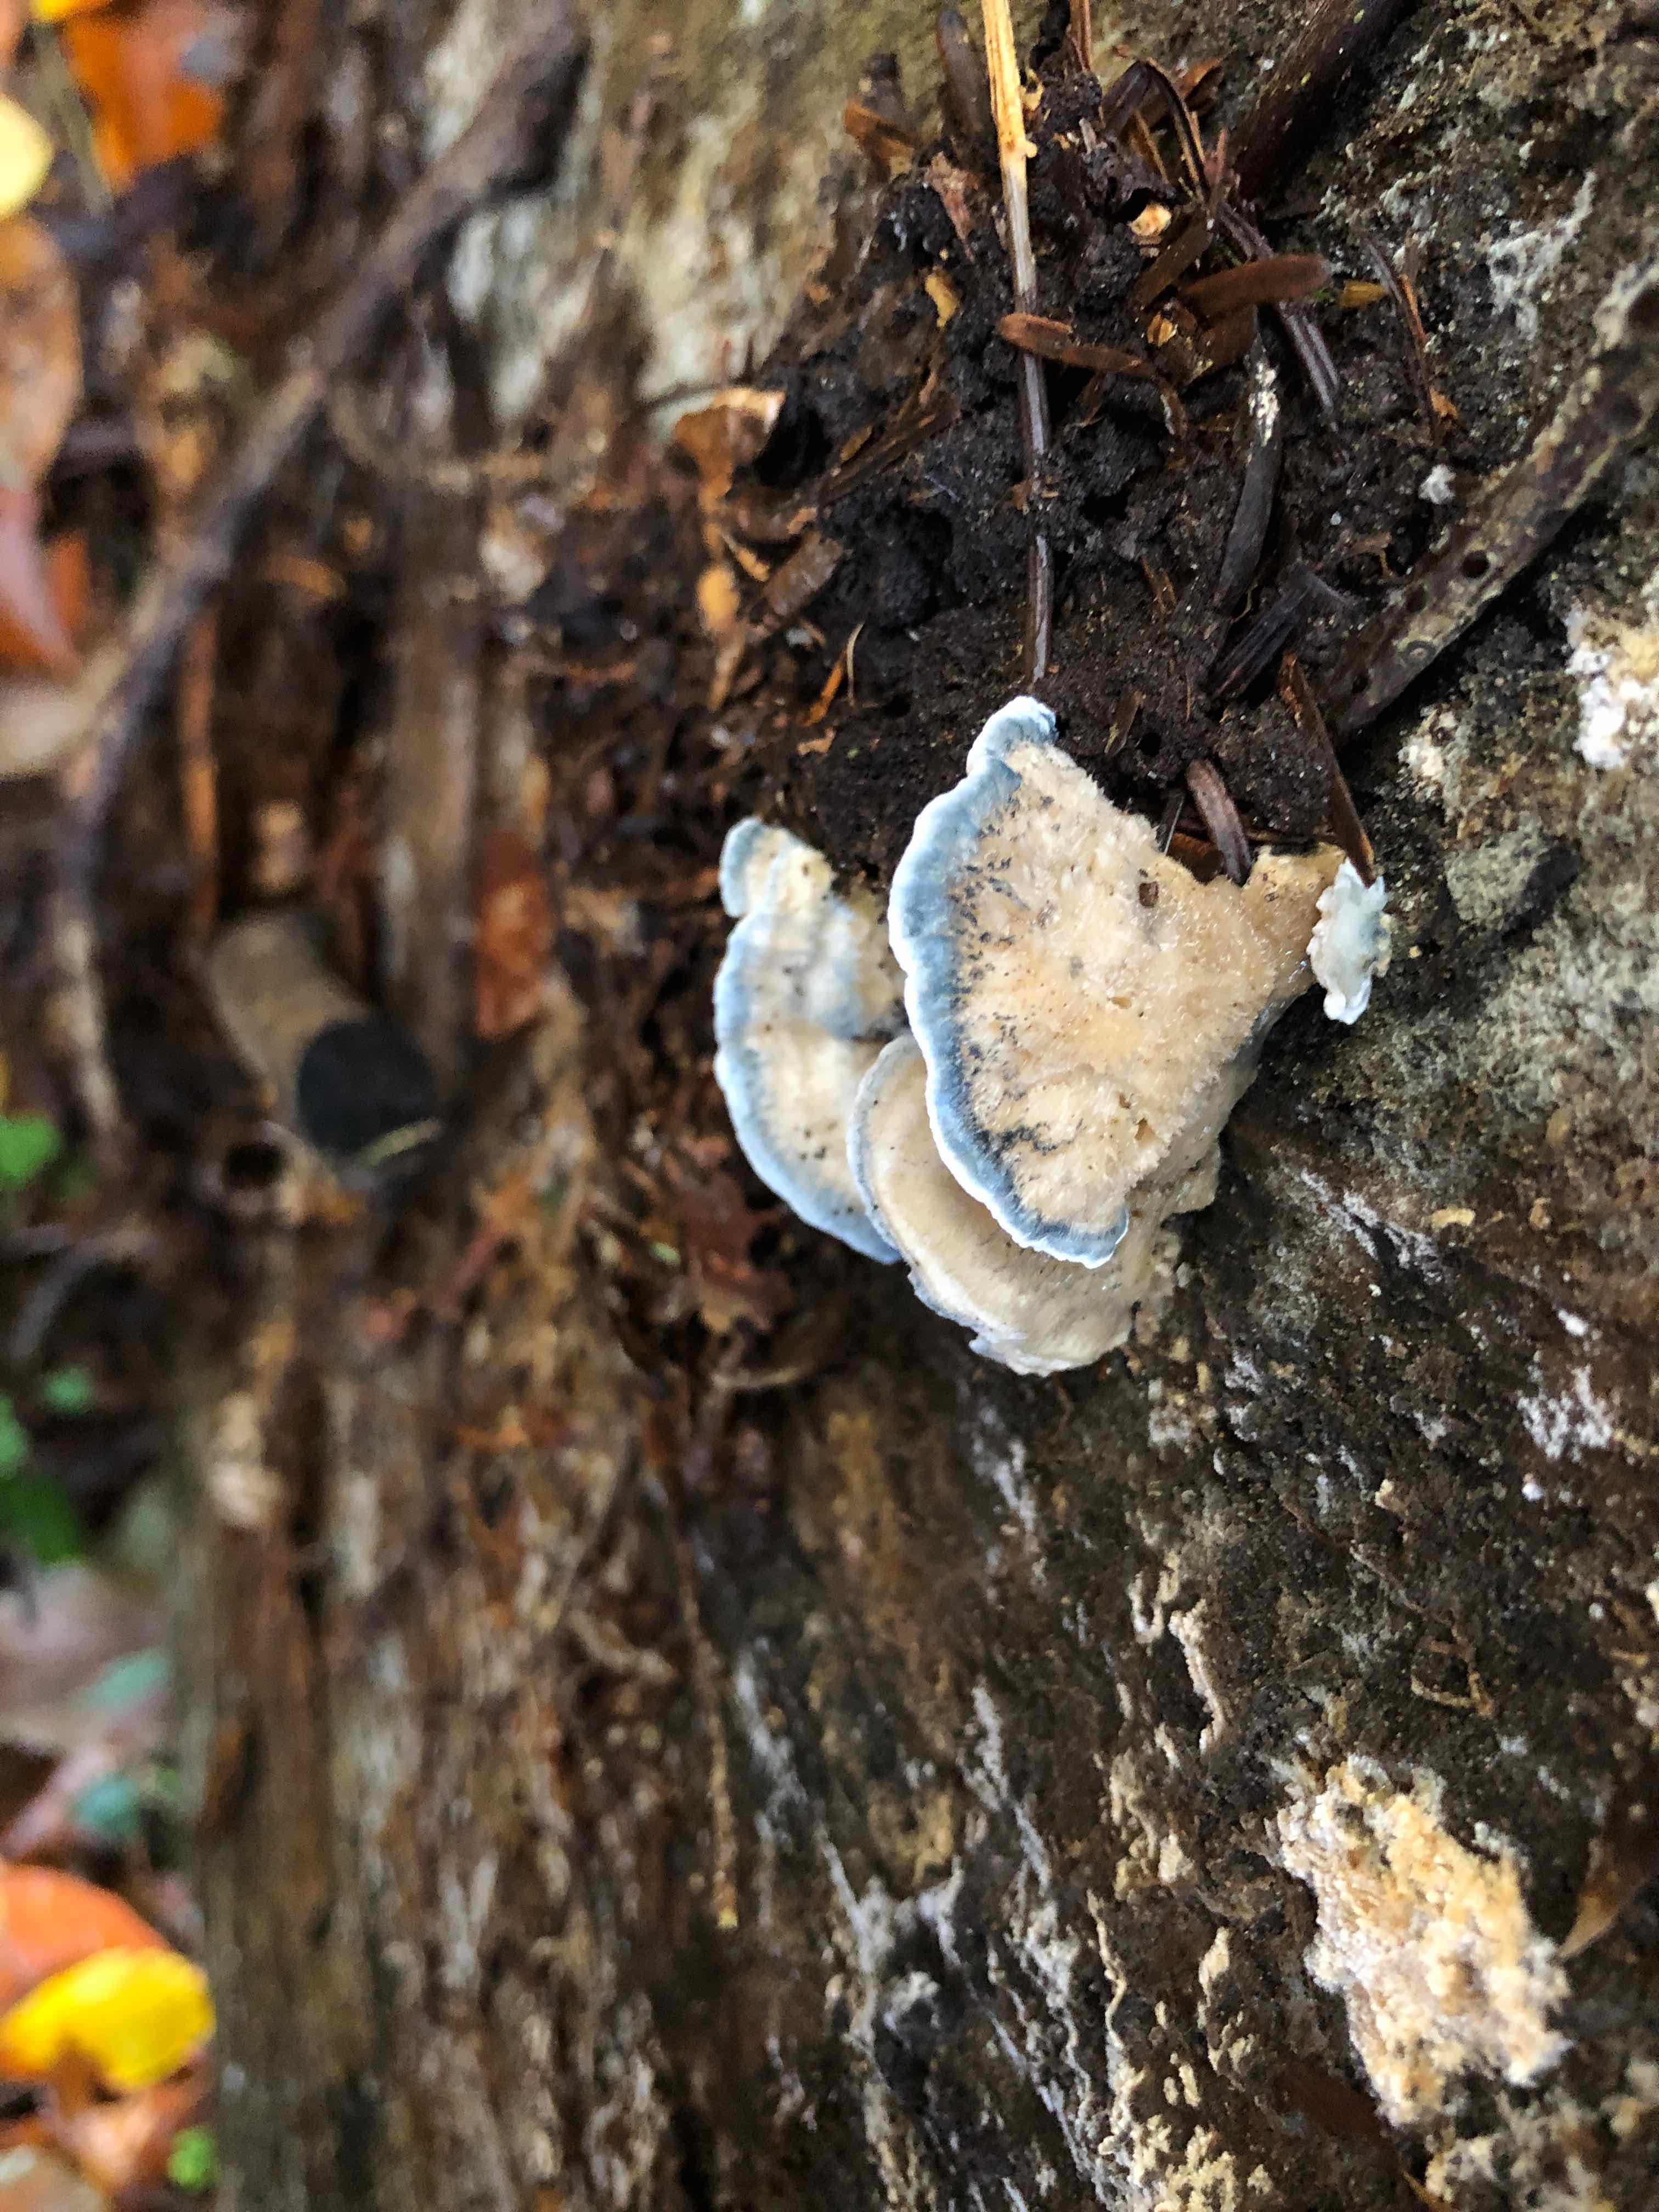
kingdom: Fungi
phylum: Basidiomycota
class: Agaricomycetes
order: Polyporales
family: Polyporaceae
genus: Cyanosporus
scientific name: Cyanosporus caesius
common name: blålig kødporesvamp
